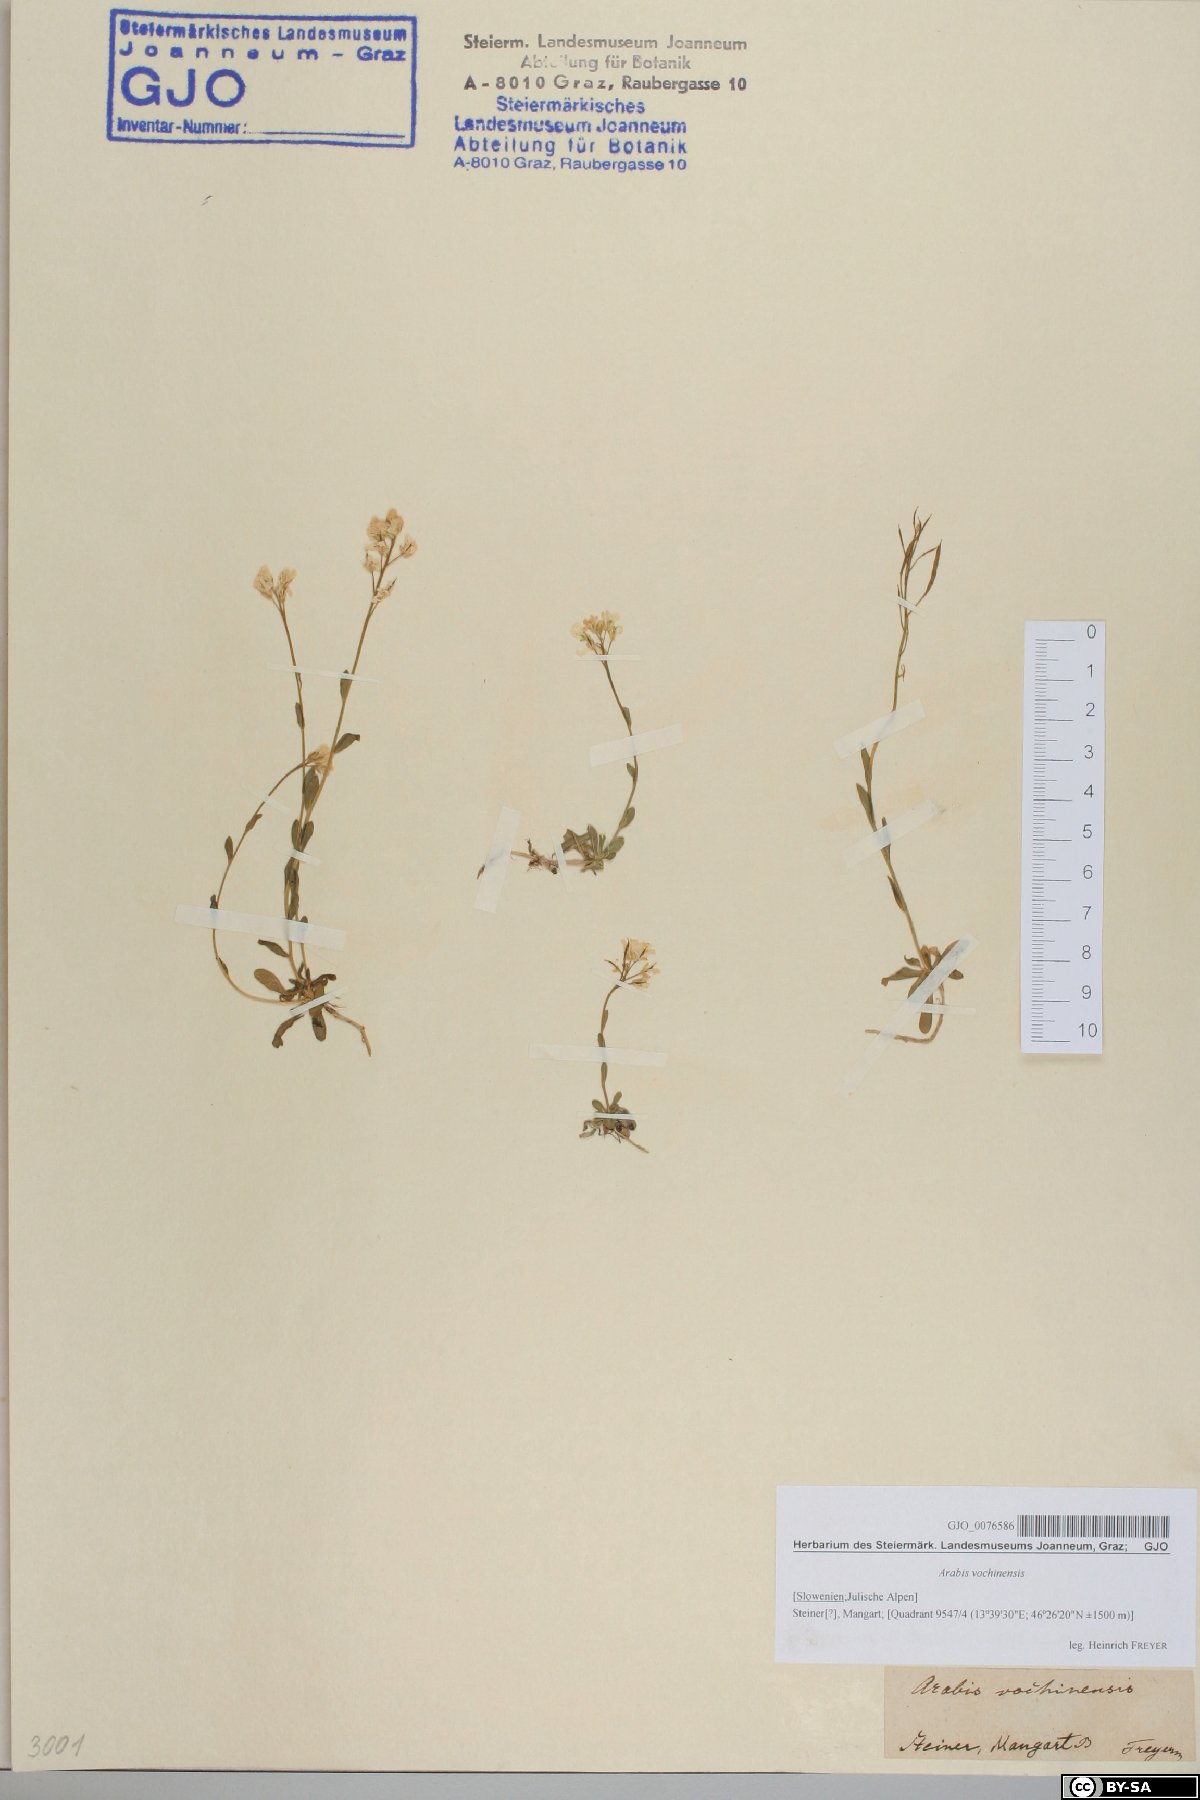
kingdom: Plantae
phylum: Tracheophyta
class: Magnoliopsida
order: Brassicales
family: Brassicaceae
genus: Arabis
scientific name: Arabis vochinensis
